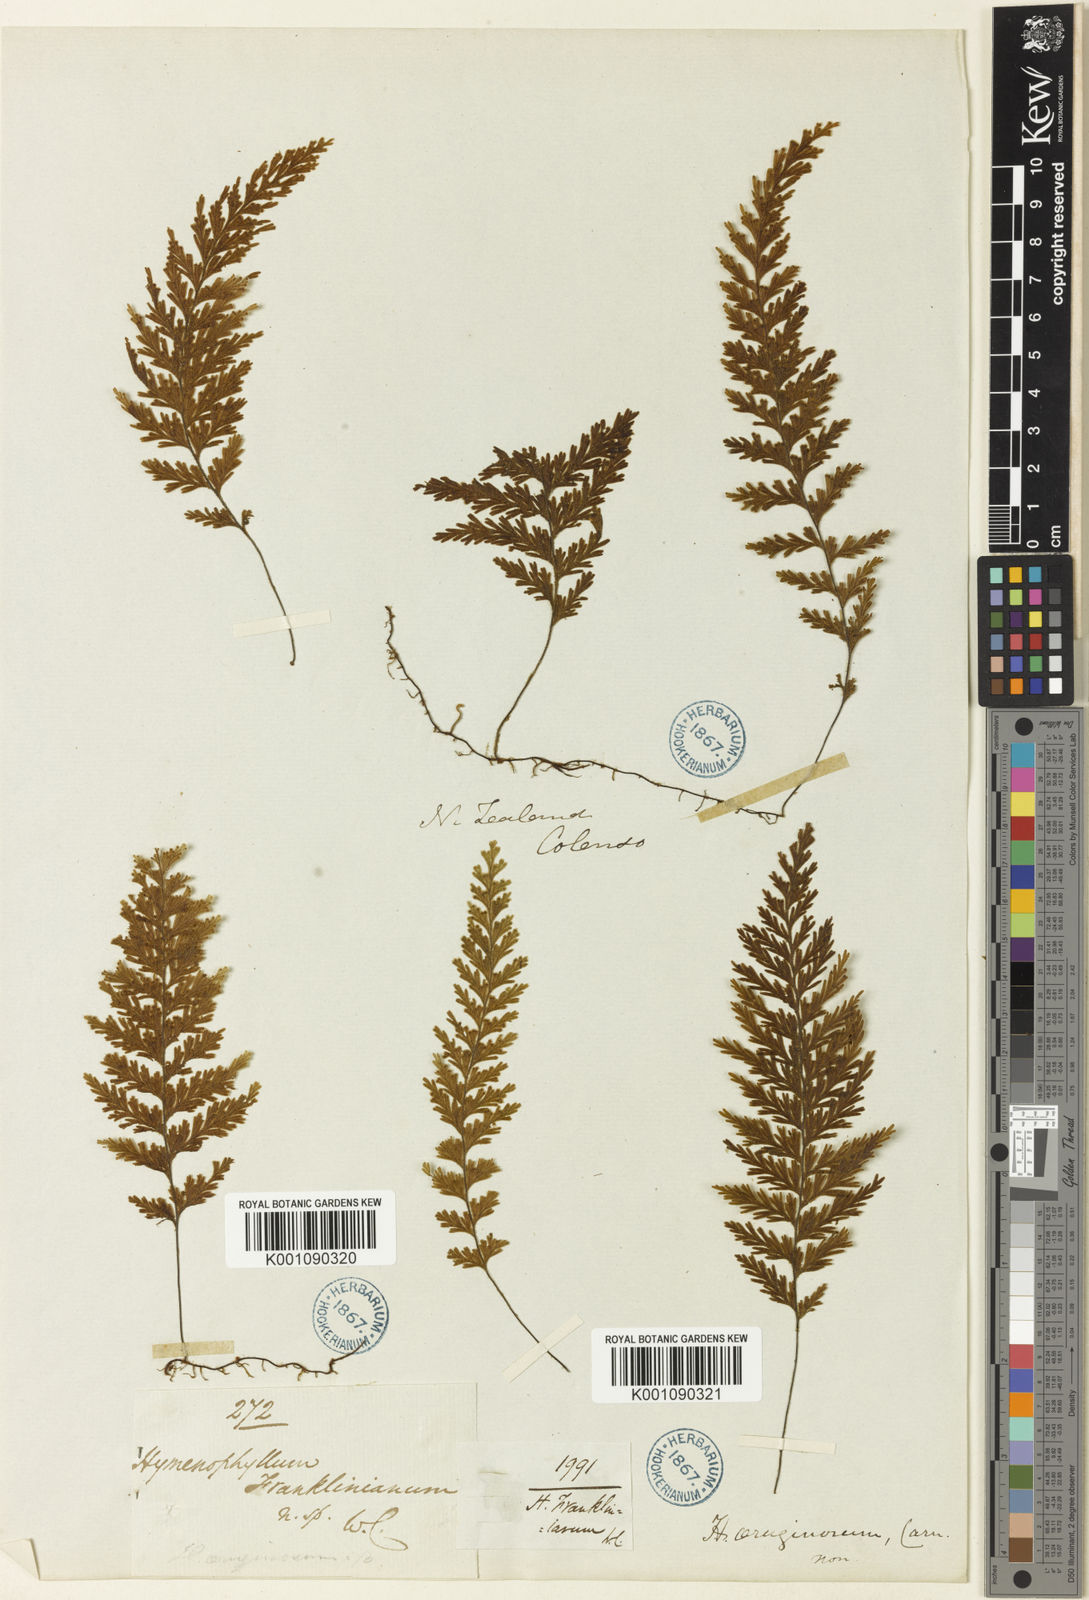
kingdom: Plantae
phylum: Tracheophyta
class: Polypodiopsida
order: Hymenophyllales
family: Hymenophyllaceae
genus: Hymenophyllum
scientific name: Hymenophyllum ferrugineum
